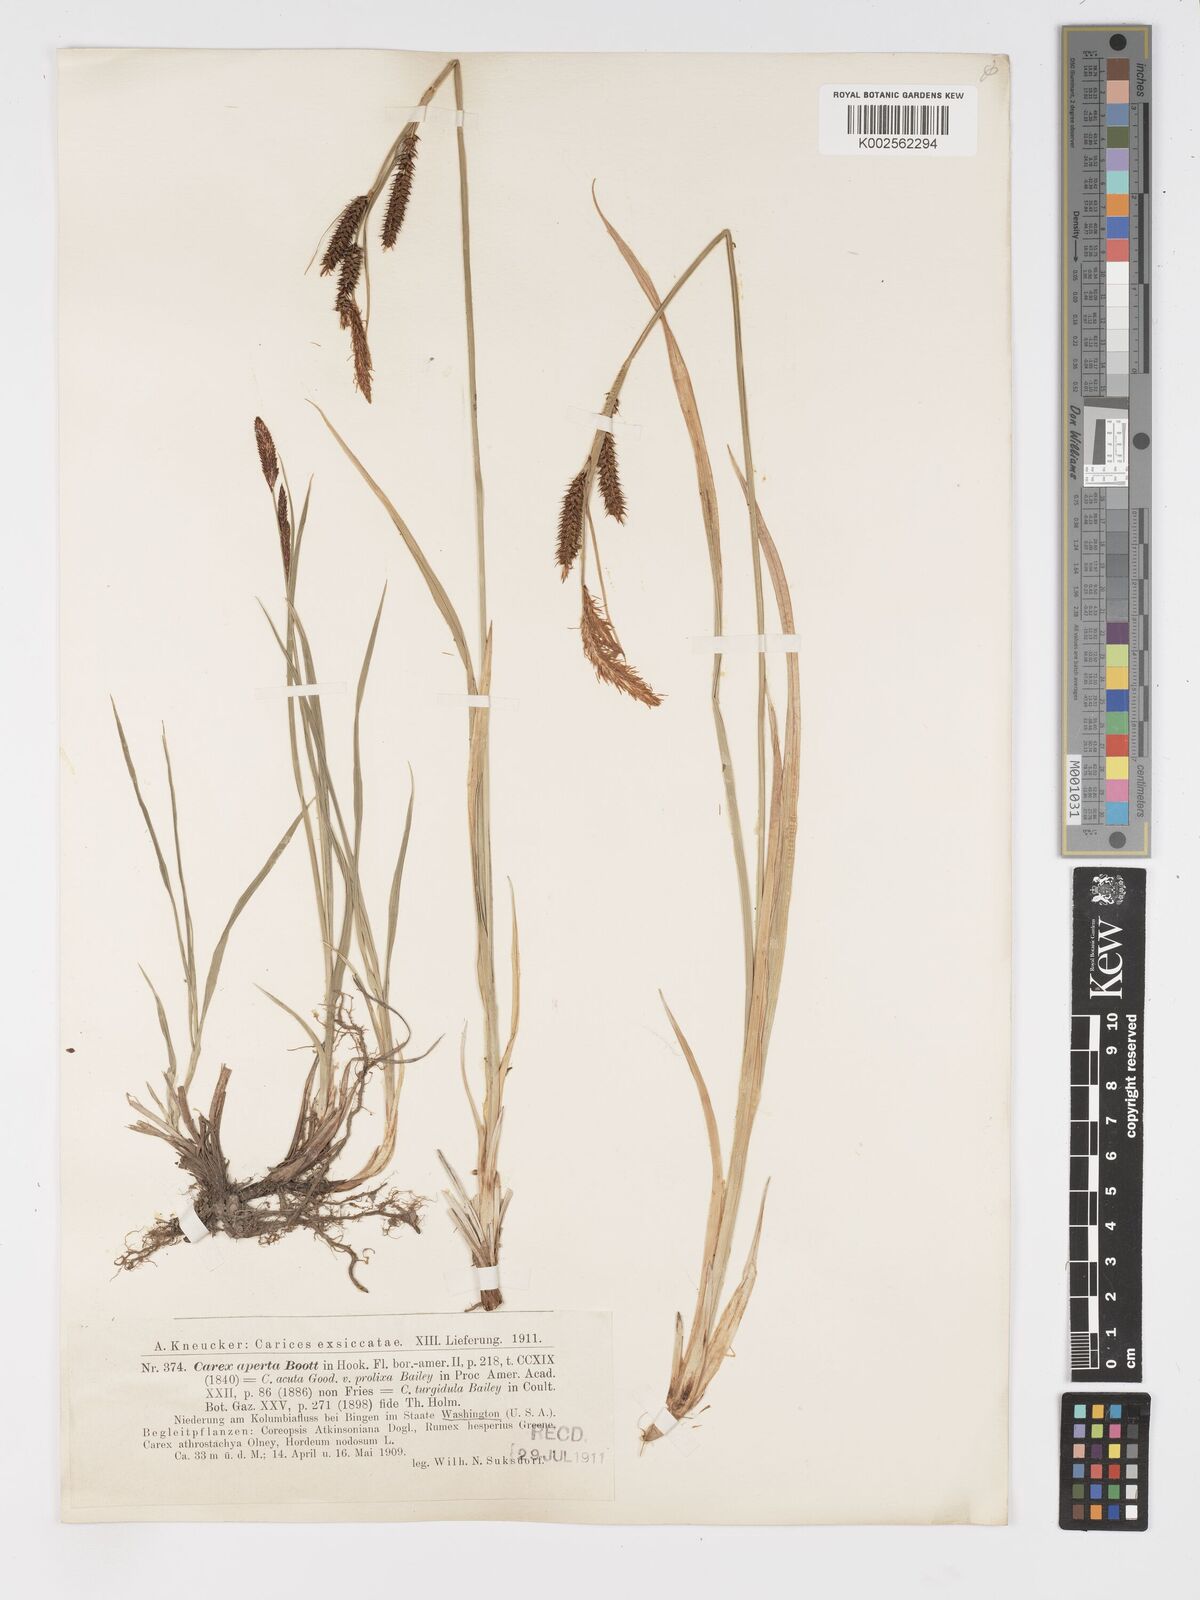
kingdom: Plantae
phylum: Tracheophyta
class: Liliopsida
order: Poales
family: Cyperaceae
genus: Carex
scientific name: Carex aperta
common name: Columbia sedge
